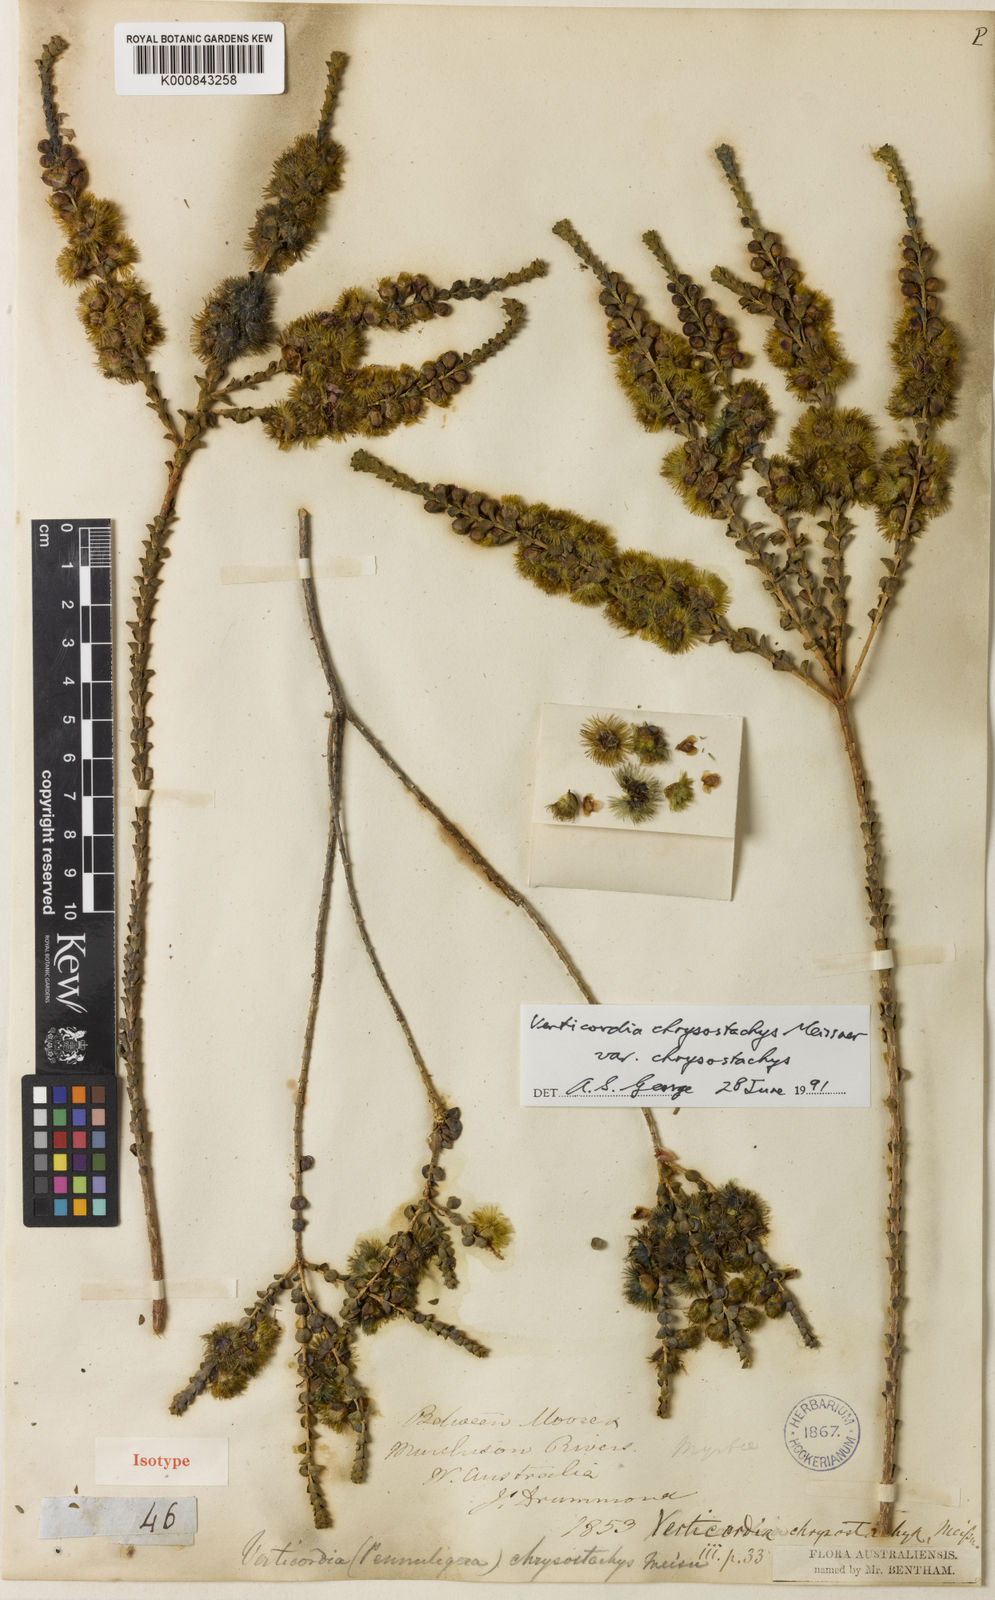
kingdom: Plantae
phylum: Tracheophyta
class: Magnoliopsida
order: Myrtales
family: Myrtaceae
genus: Verticordia
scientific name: Verticordia chrysostachys
